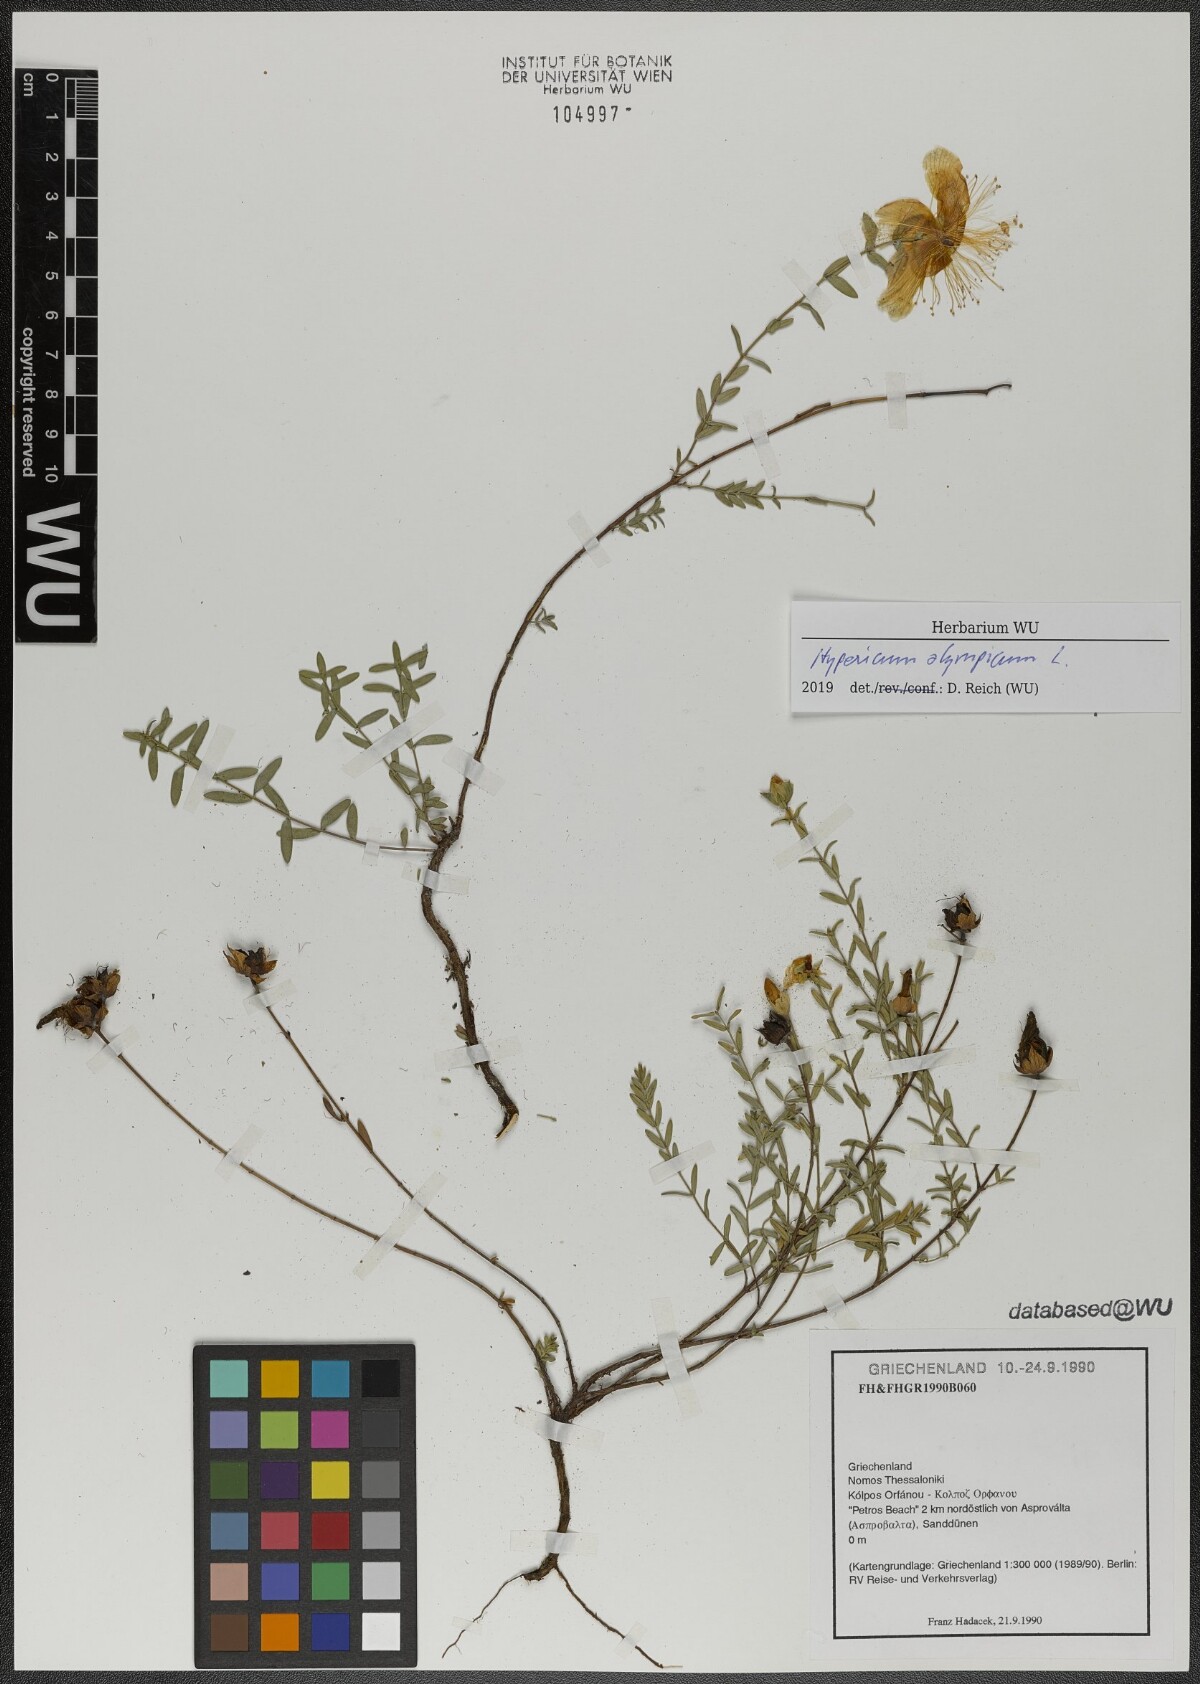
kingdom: Plantae
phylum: Tracheophyta
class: Magnoliopsida
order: Malpighiales
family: Hypericaceae
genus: Hypericum
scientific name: Hypericum olympicum
